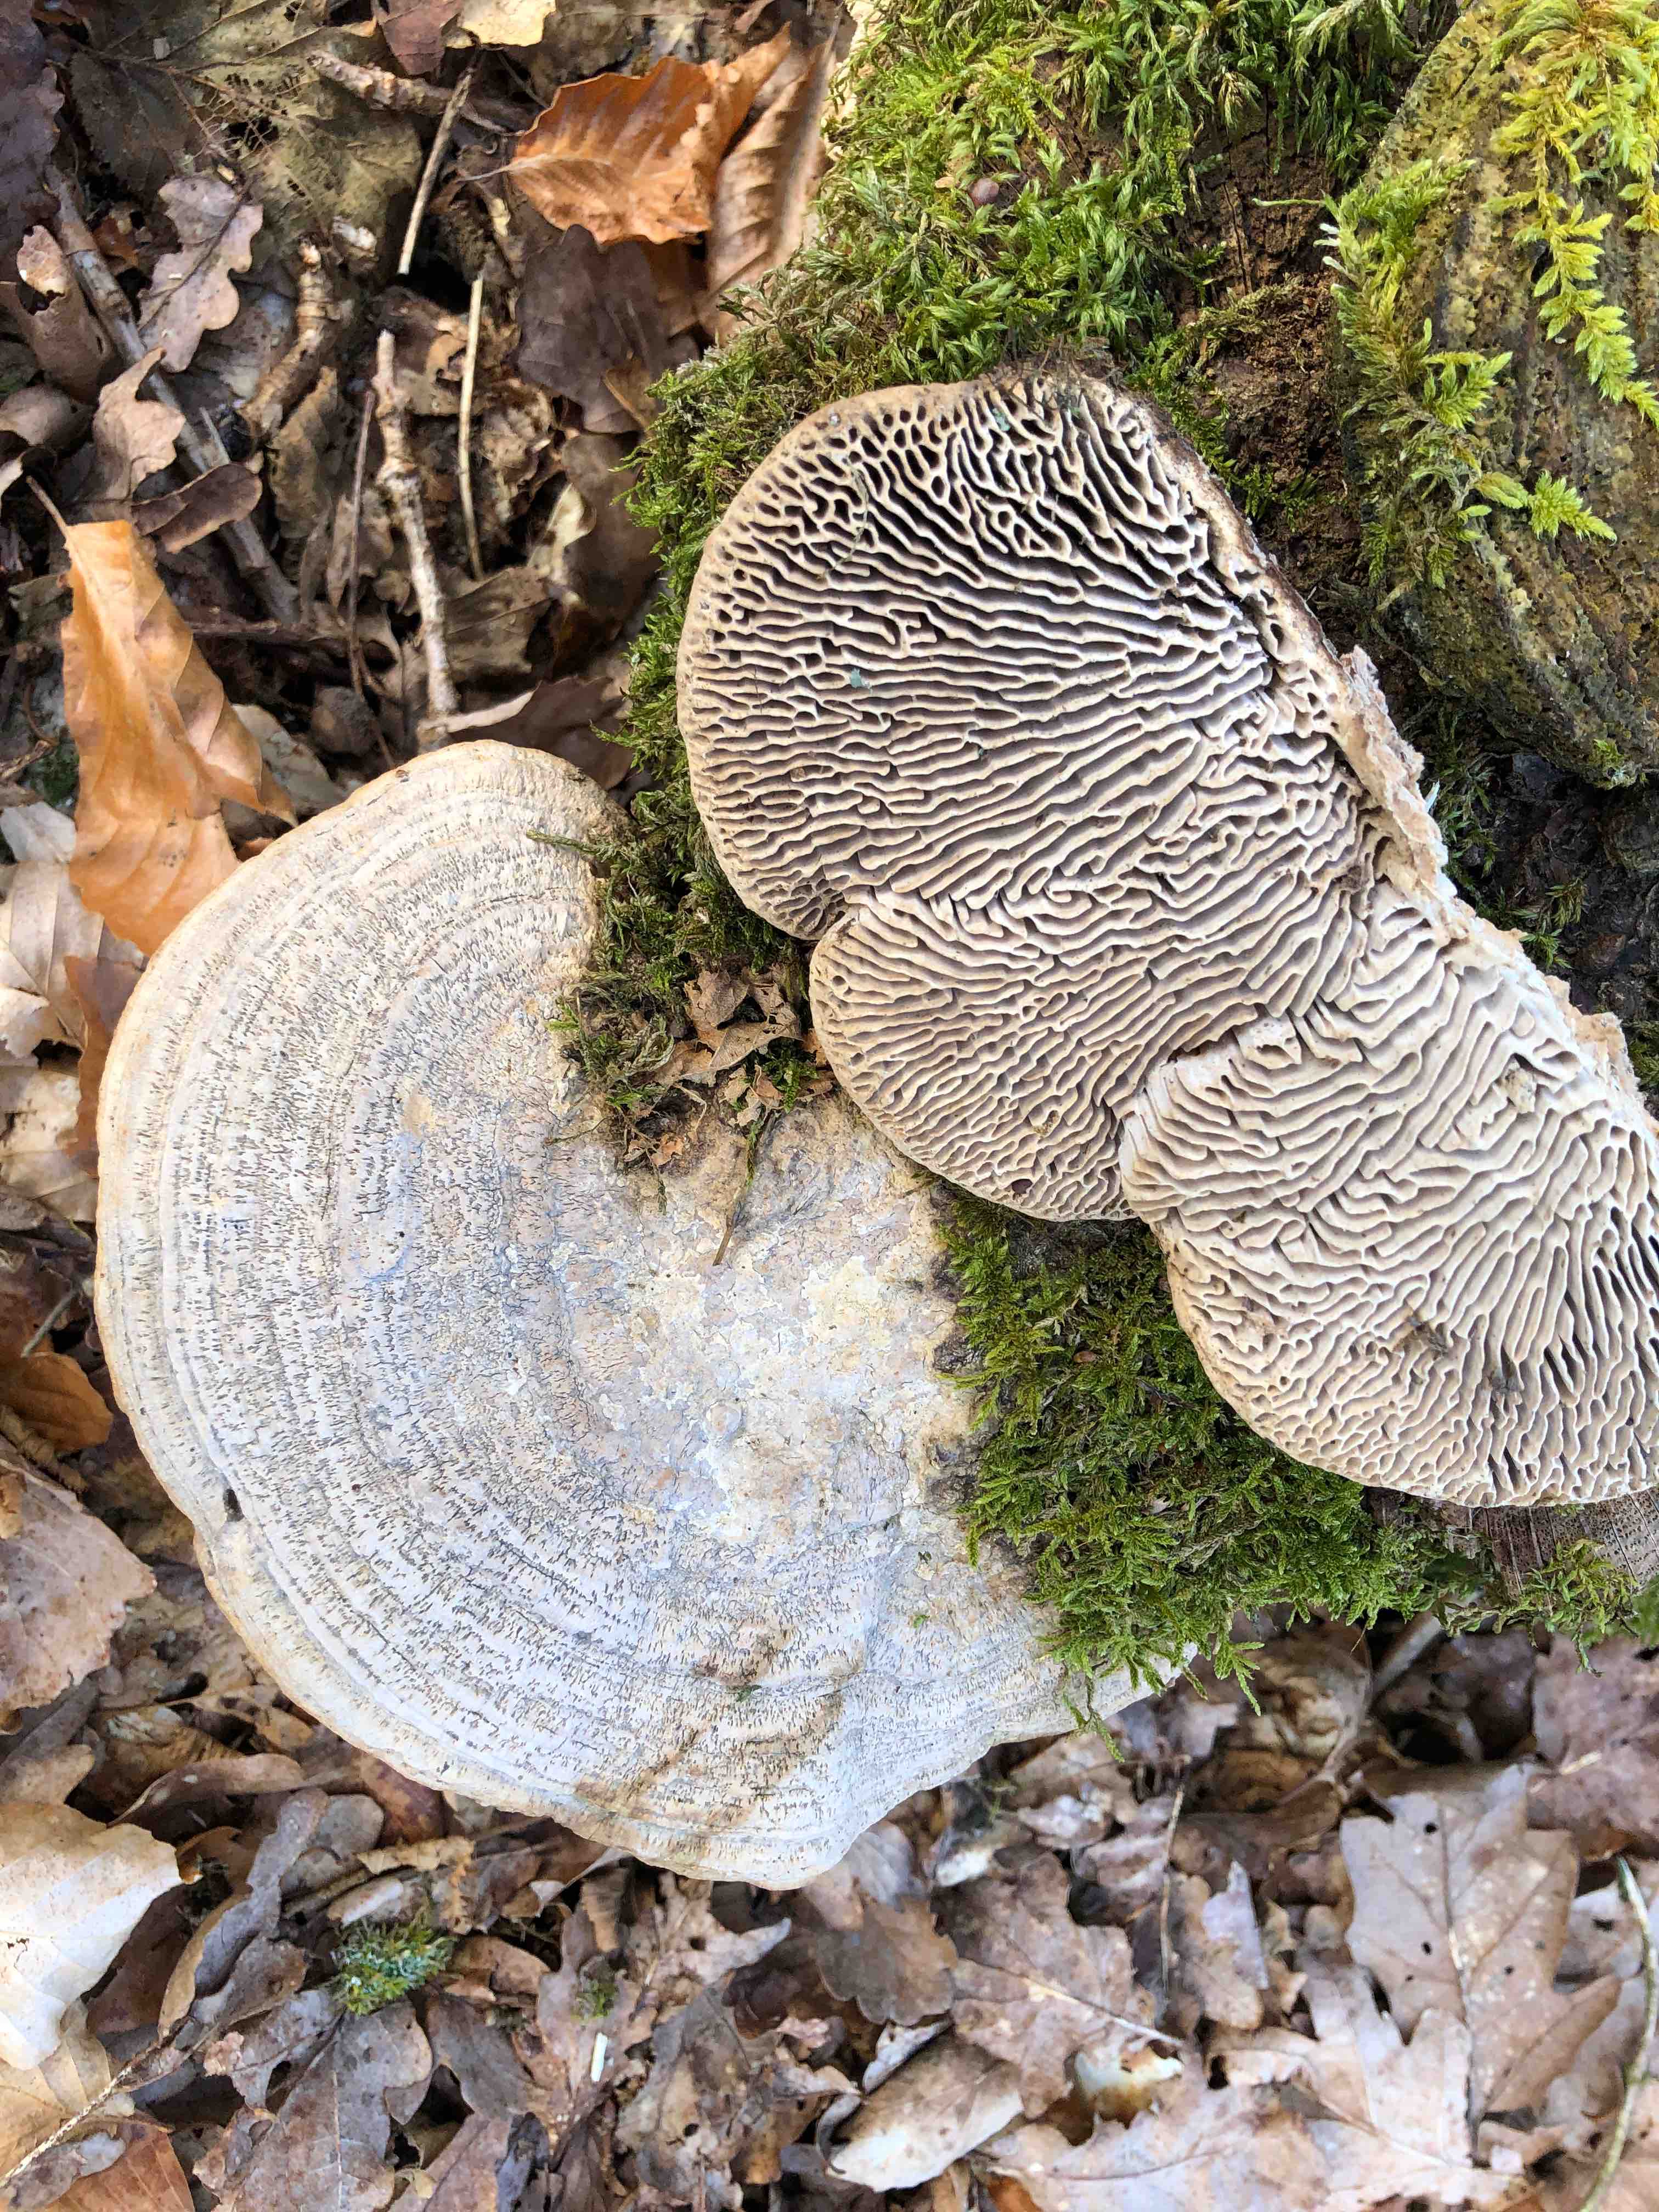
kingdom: Fungi
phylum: Basidiomycota
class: Agaricomycetes
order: Polyporales
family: Fomitopsidaceae
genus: Daedalea
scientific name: Daedalea quercina
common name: ege-labyrintsvamp
